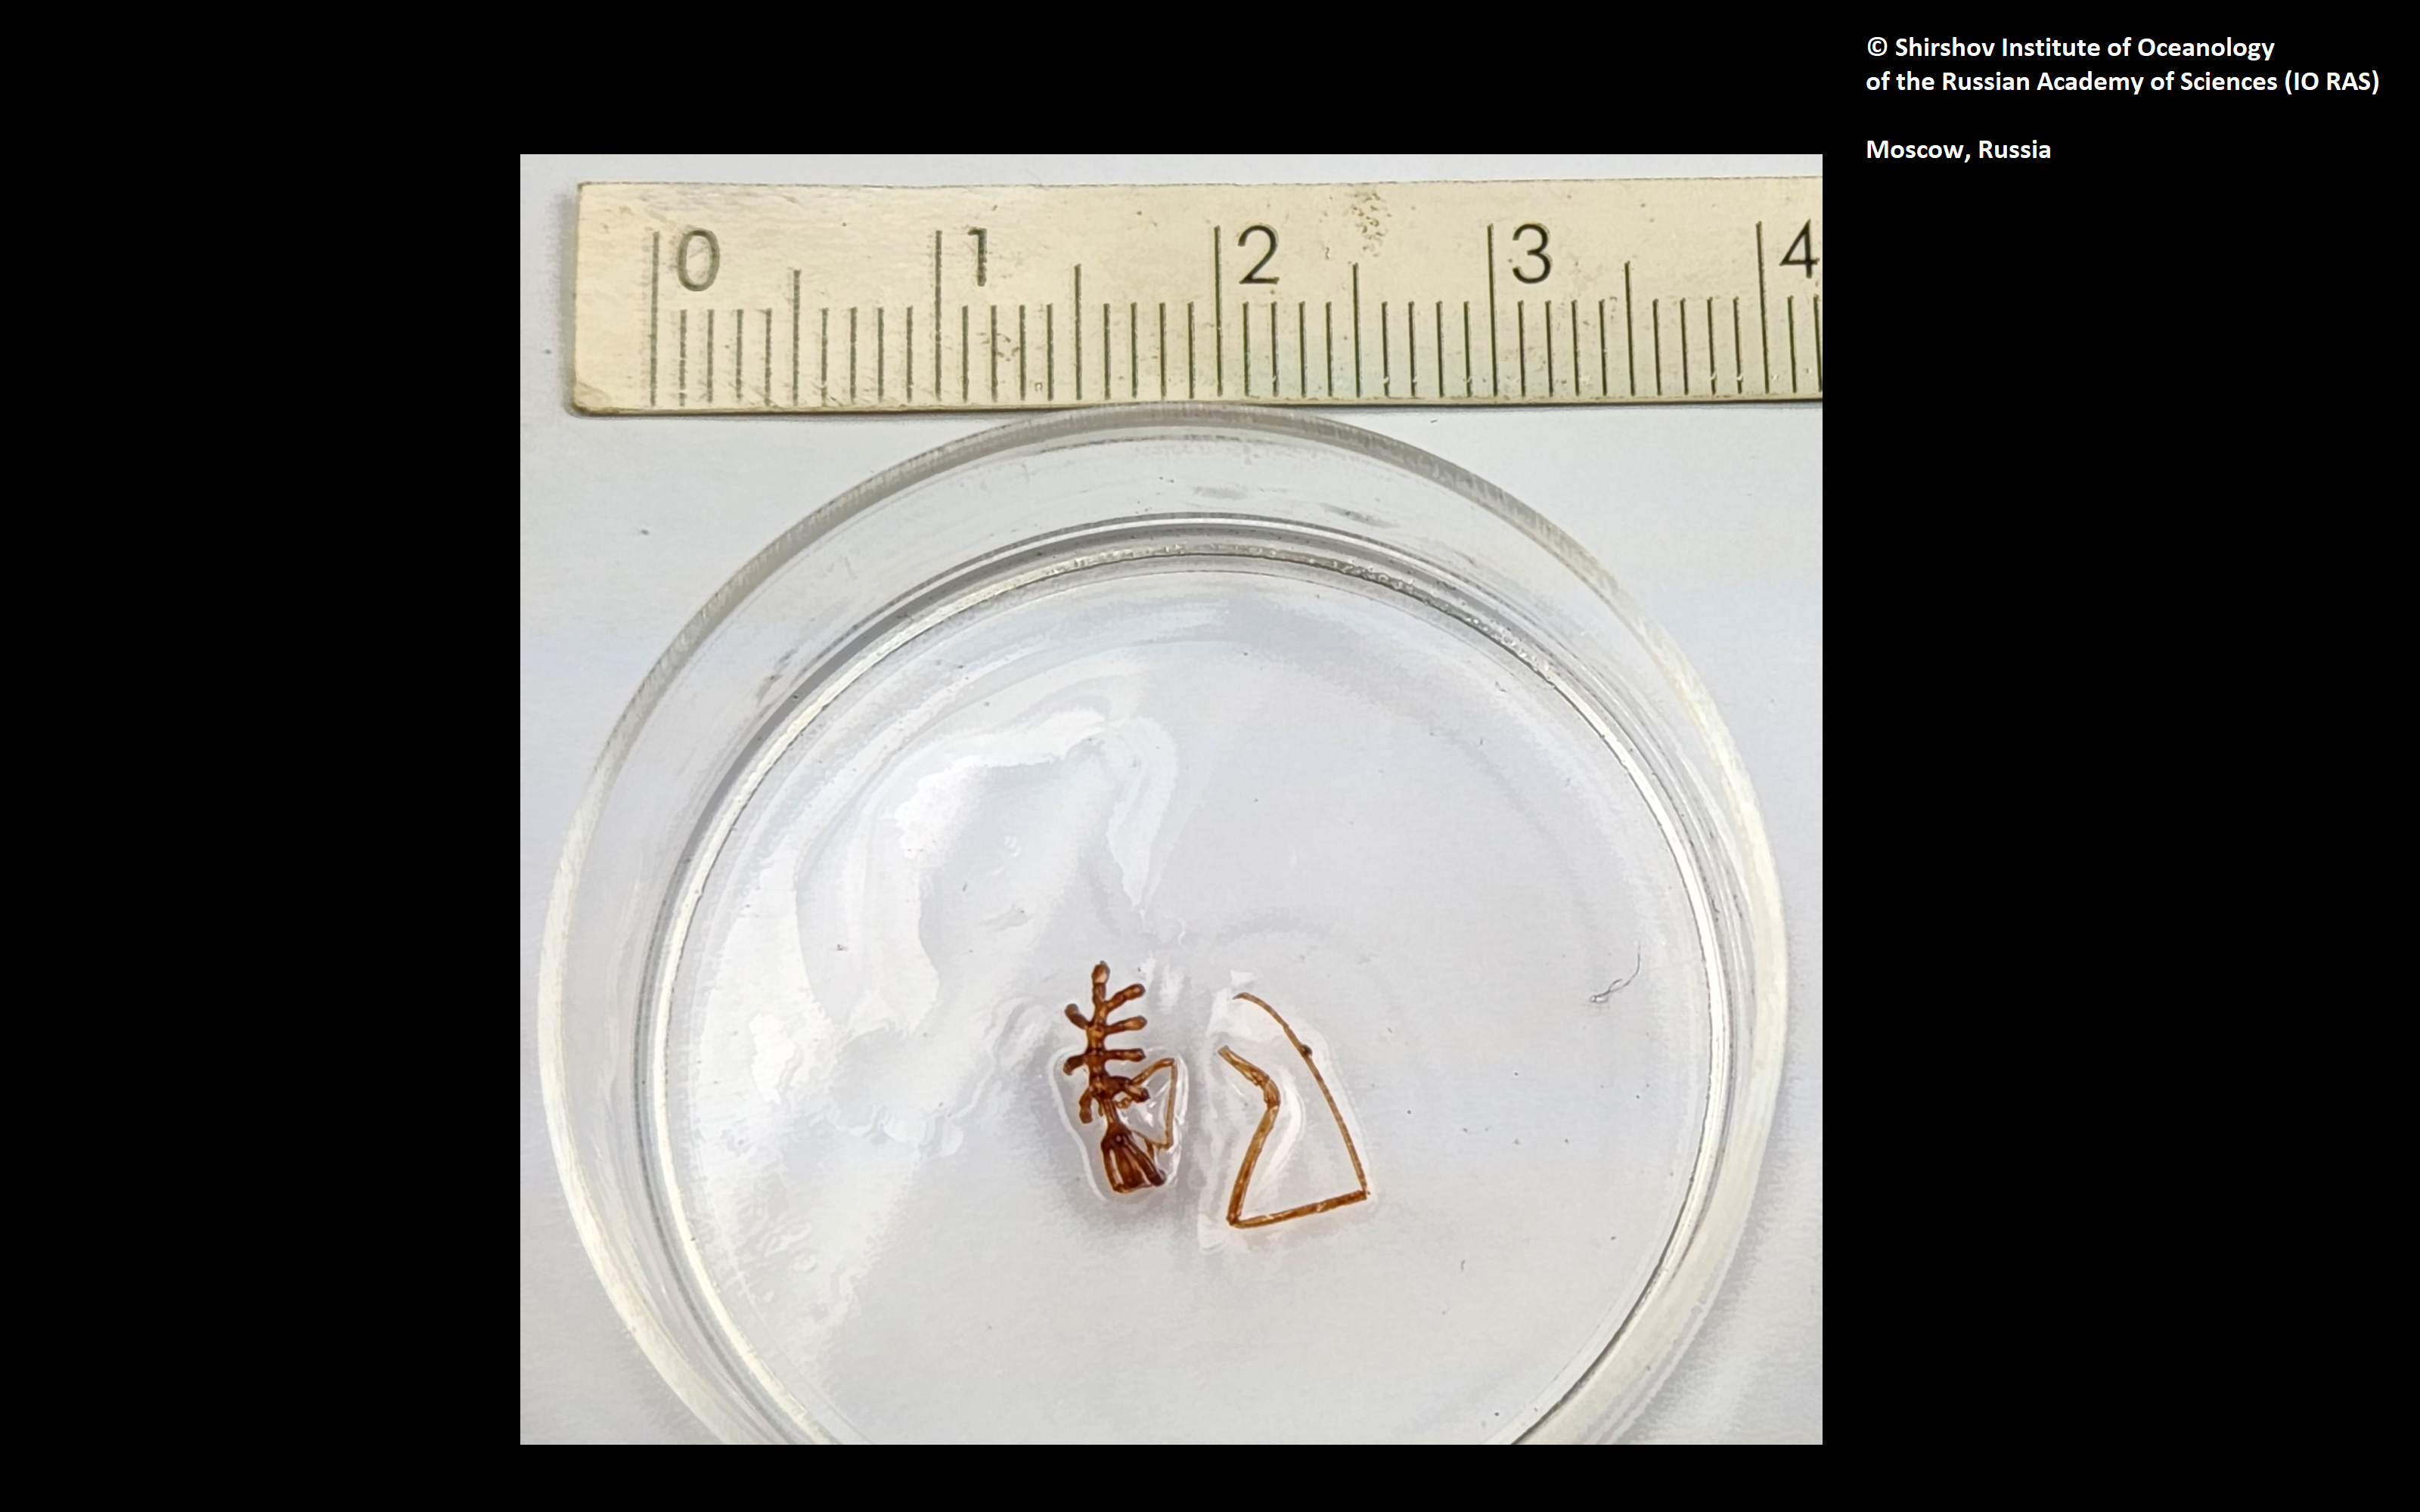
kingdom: Animalia
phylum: Arthropoda
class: Pycnogonida
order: Pantopoda
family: Nymphonidae
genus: Nymphon
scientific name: Nymphon quadriclavus
